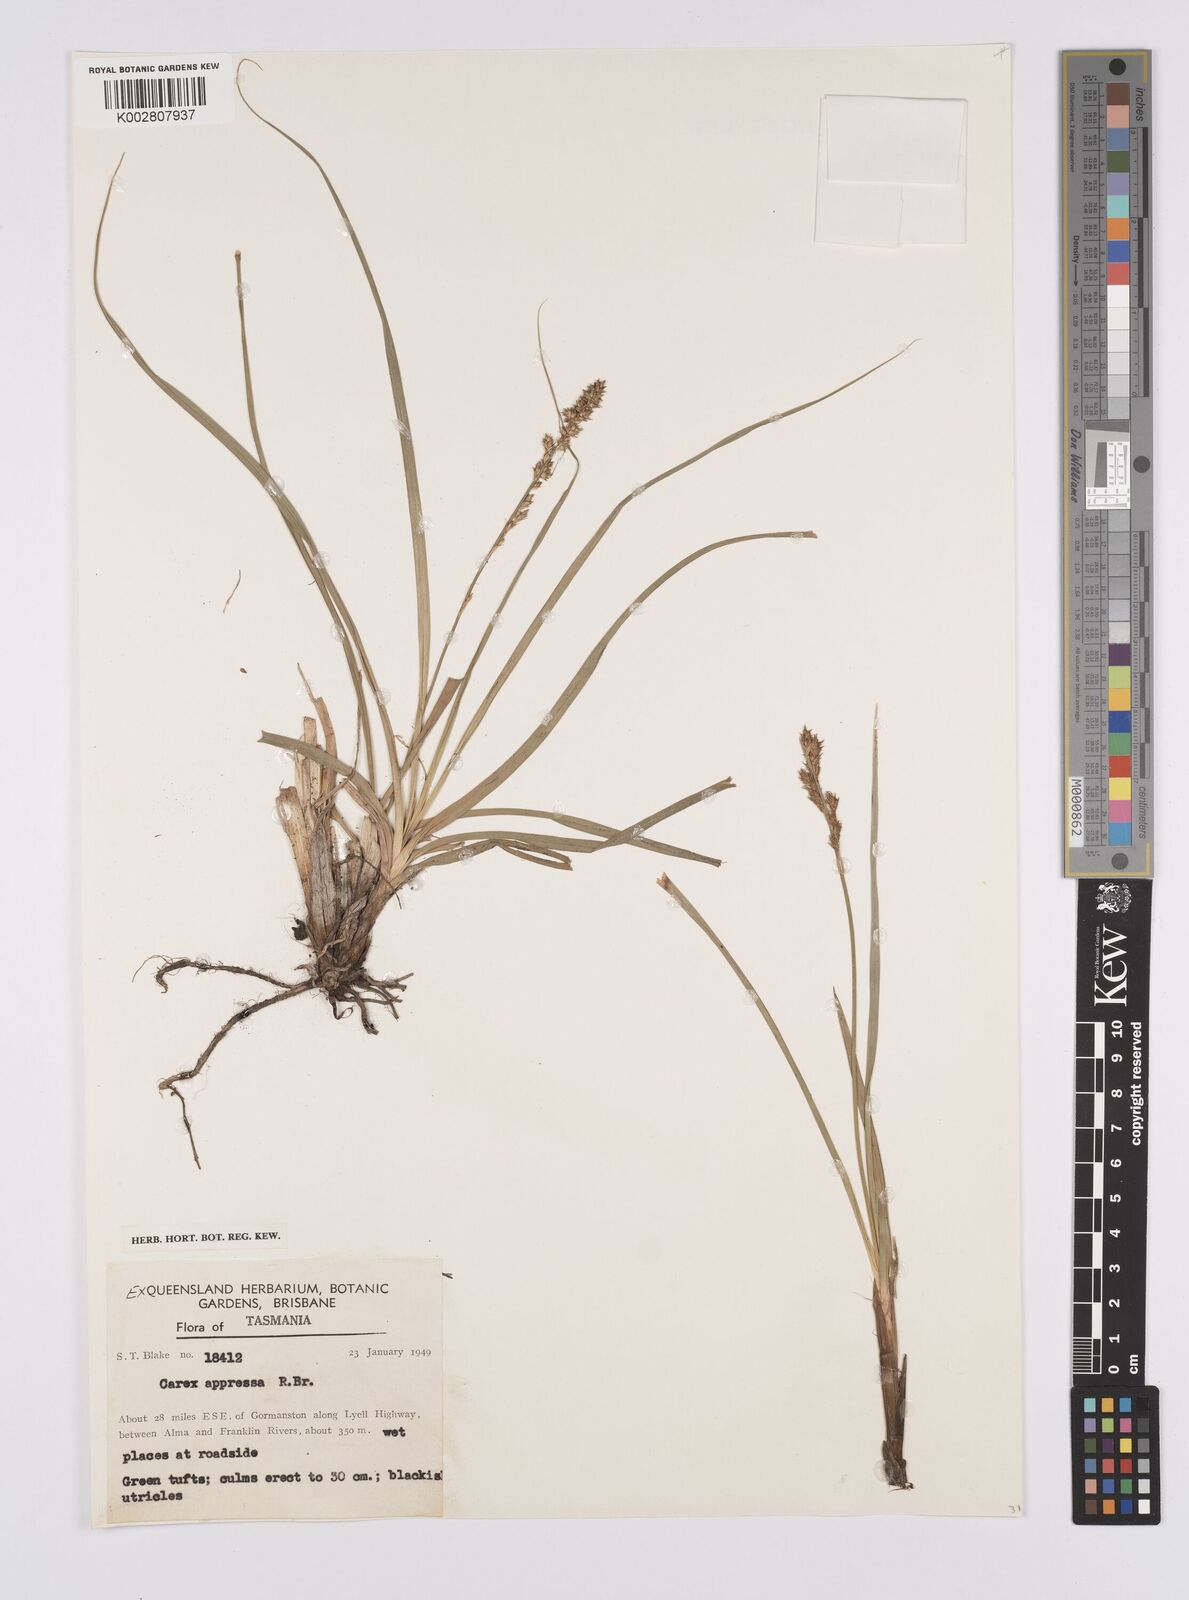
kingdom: Plantae
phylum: Tracheophyta
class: Liliopsida
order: Poales
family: Cyperaceae
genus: Carex
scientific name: Carex appressa
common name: Tussock sedge
